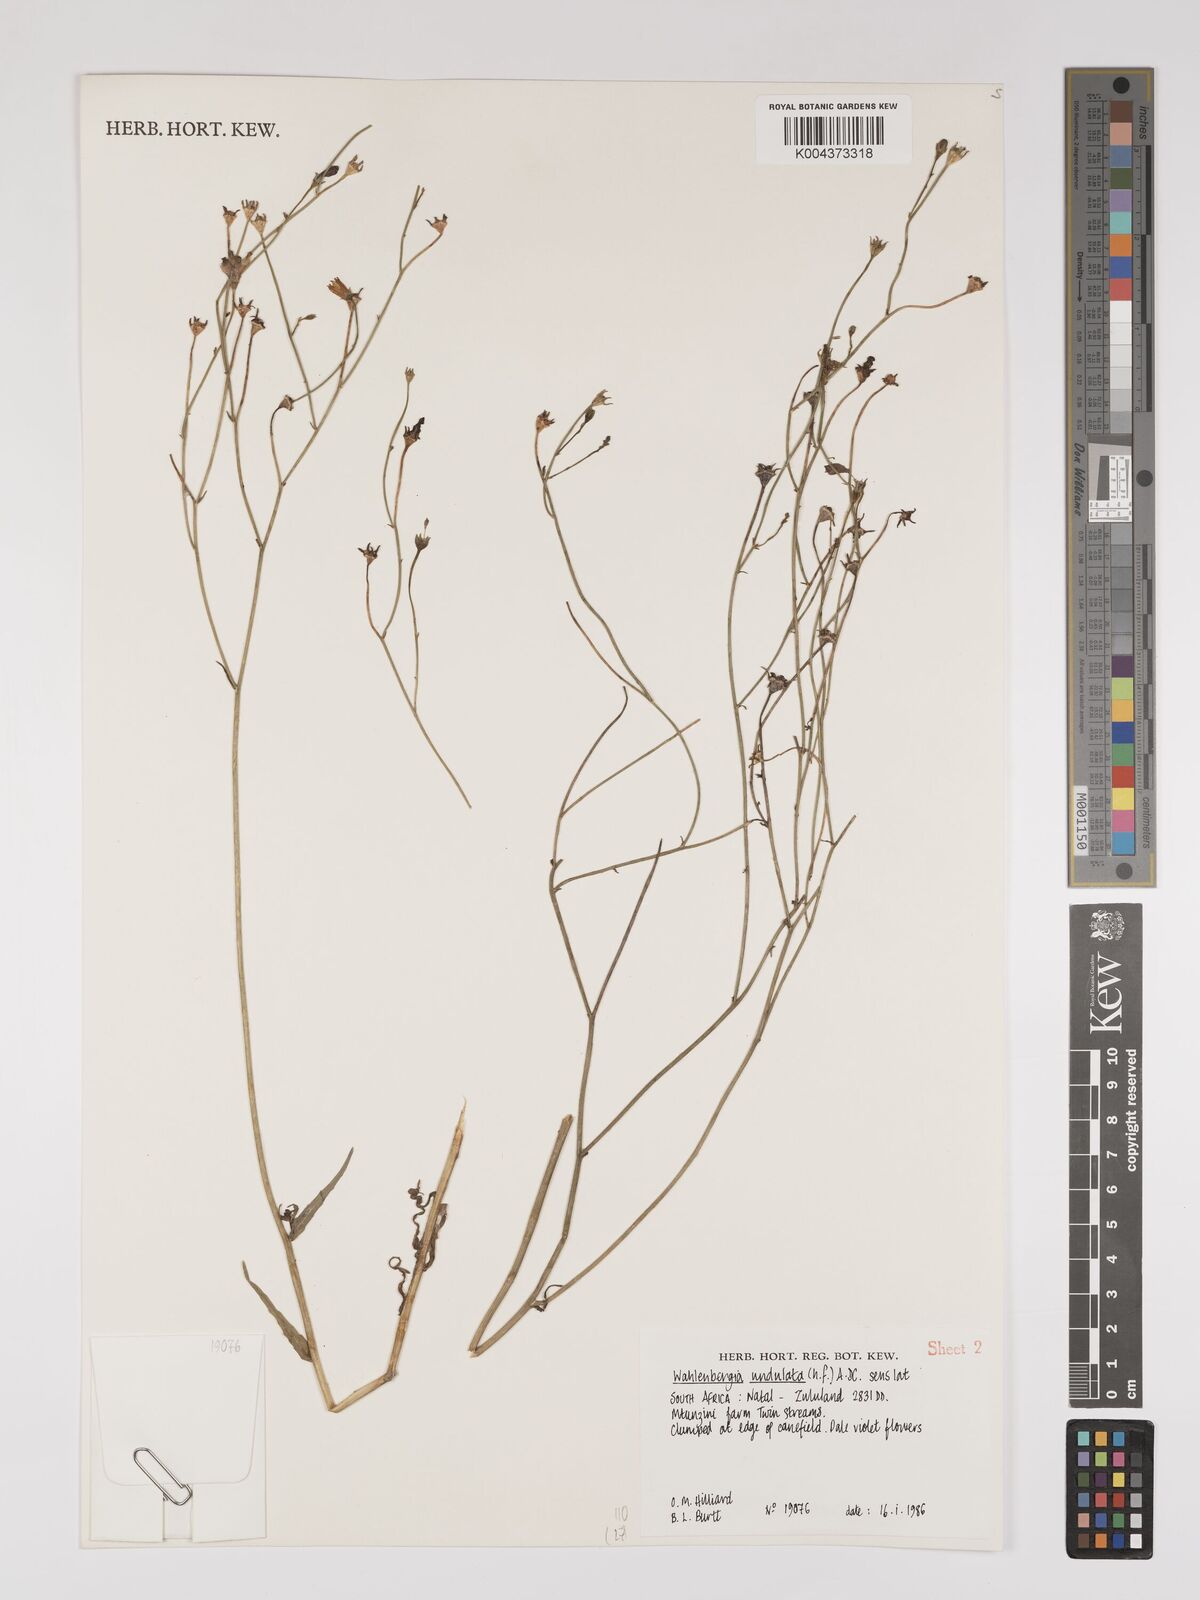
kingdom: Plantae
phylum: Tracheophyta
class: Magnoliopsida
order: Asterales
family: Campanulaceae
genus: Wahlenbergia
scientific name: Wahlenbergia undulata
